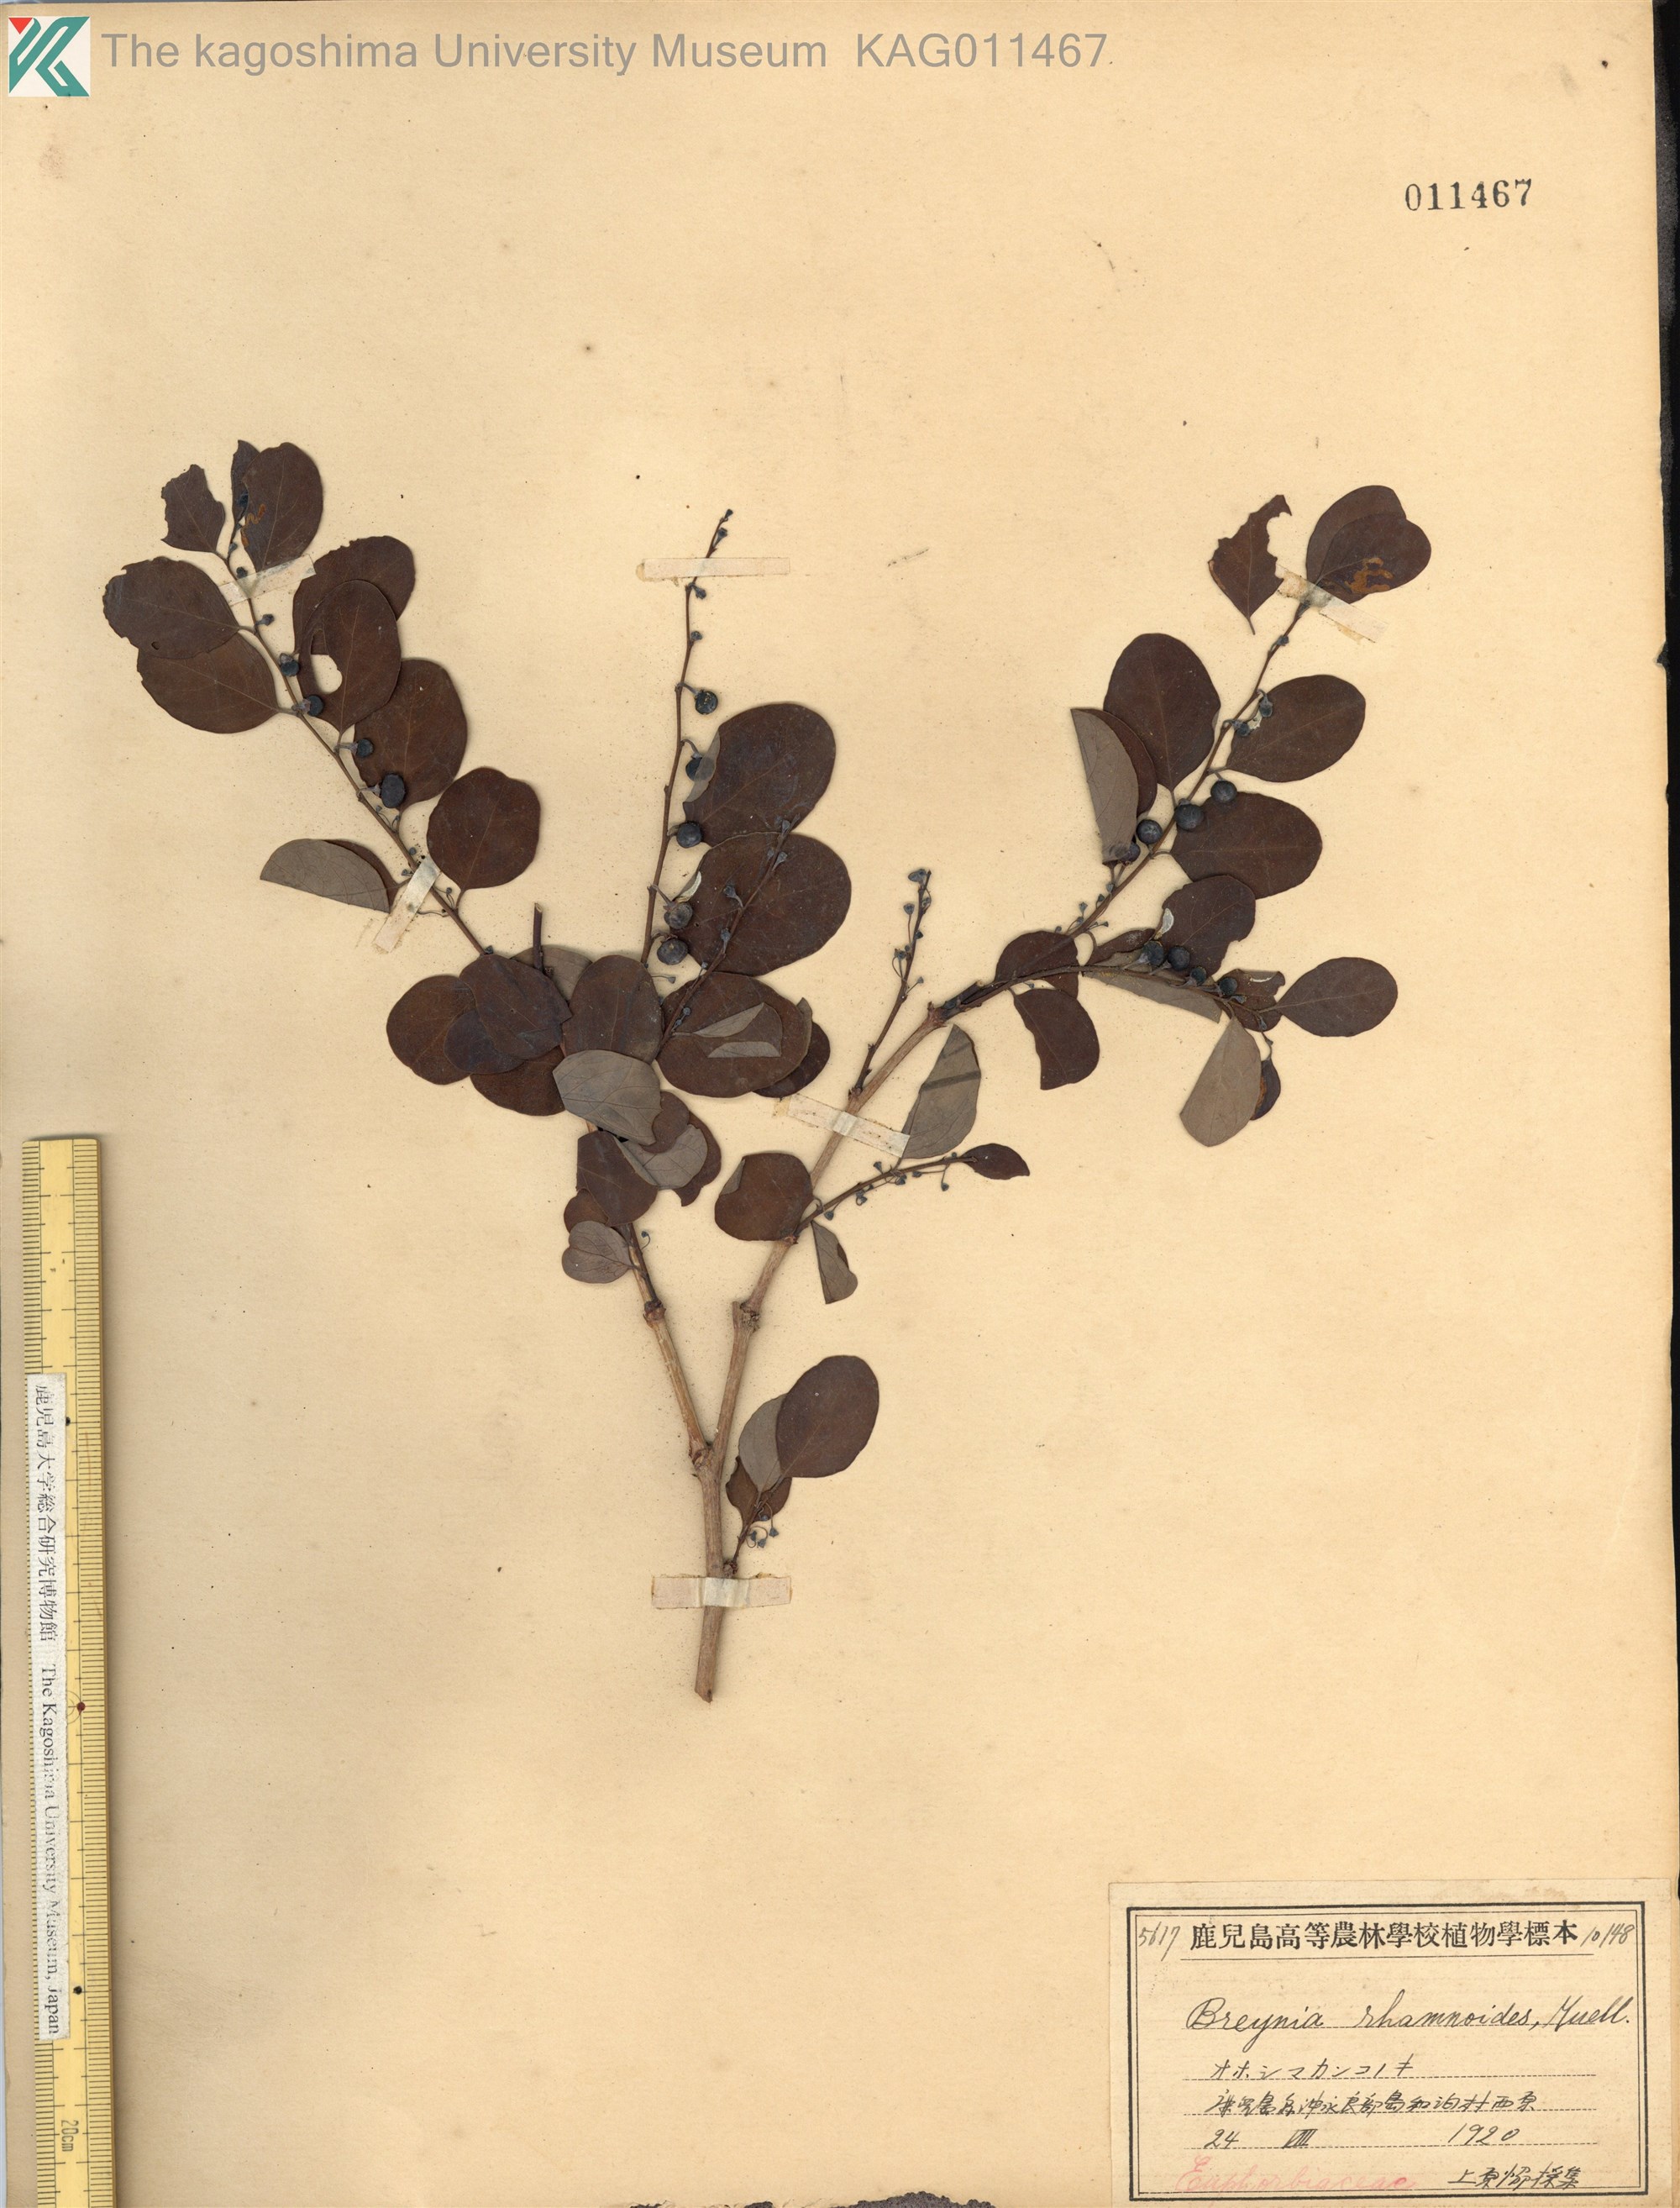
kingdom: Plantae
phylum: Tracheophyta
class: Magnoliopsida
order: Malpighiales
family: Phyllanthaceae
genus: Breynia
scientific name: Breynia vitis-idaea
